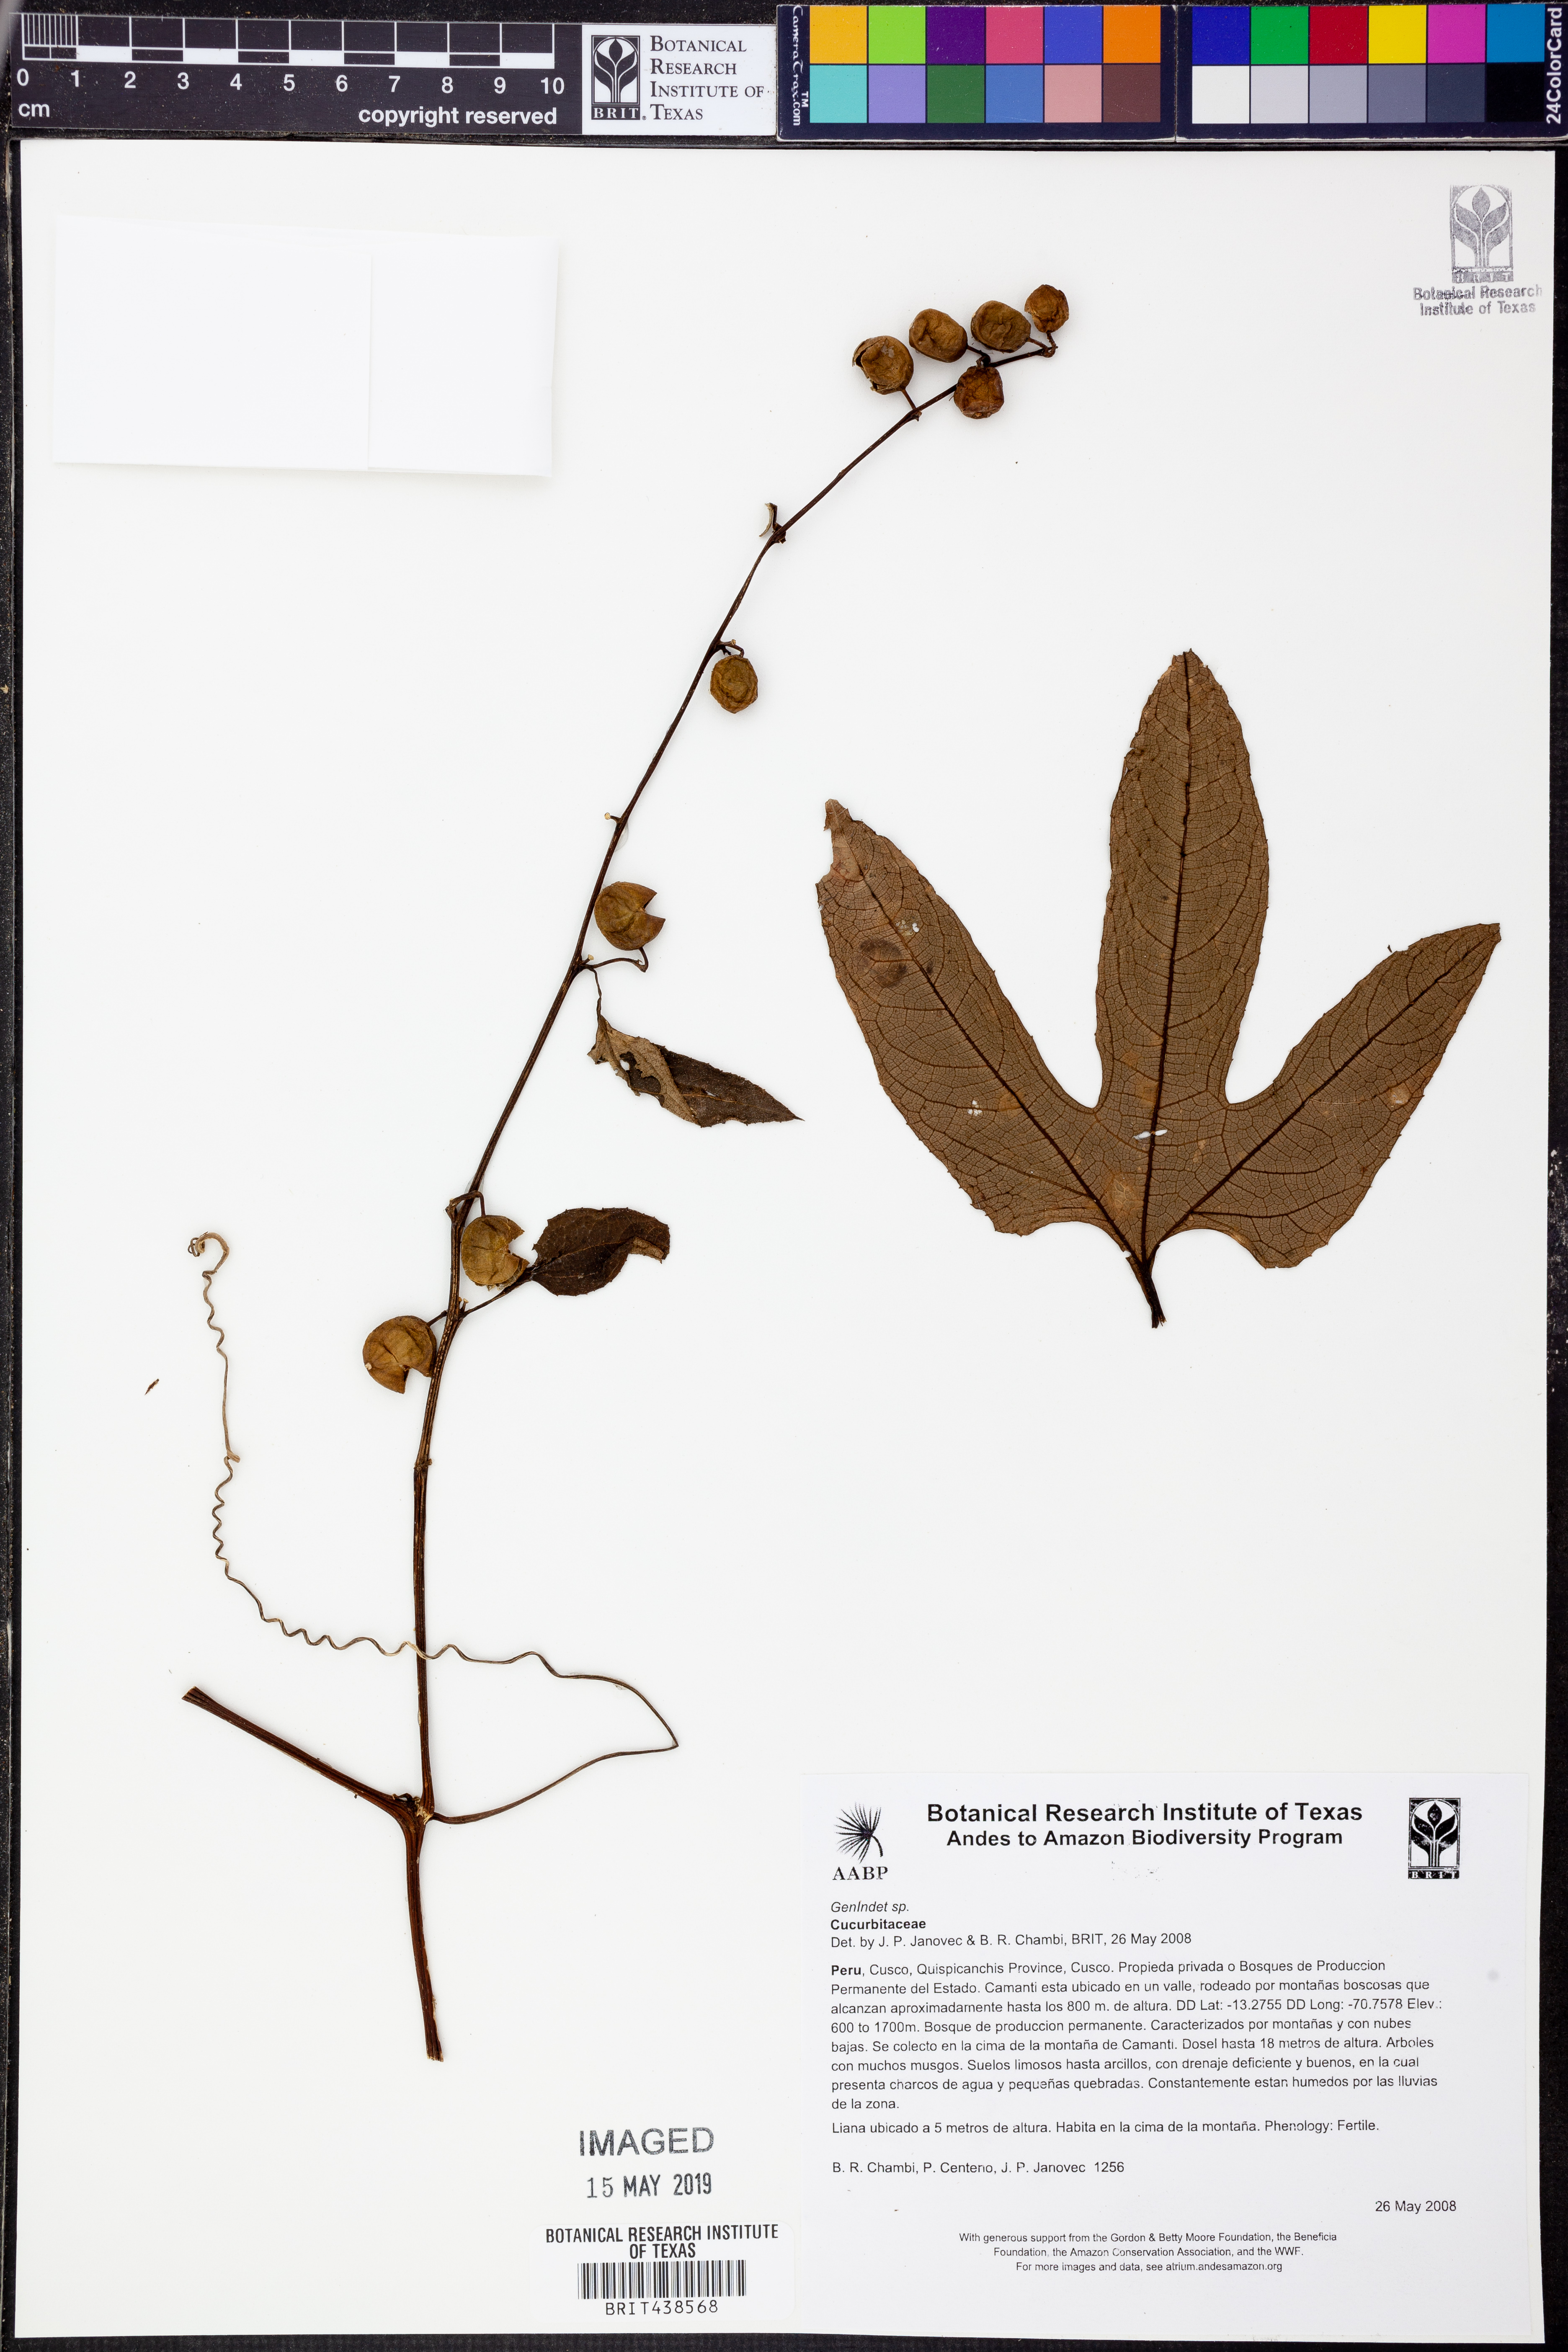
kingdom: Plantae
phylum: Tracheophyta
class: Magnoliopsida
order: Cucurbitales
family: Cucurbitaceae
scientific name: Cucurbitaceae
